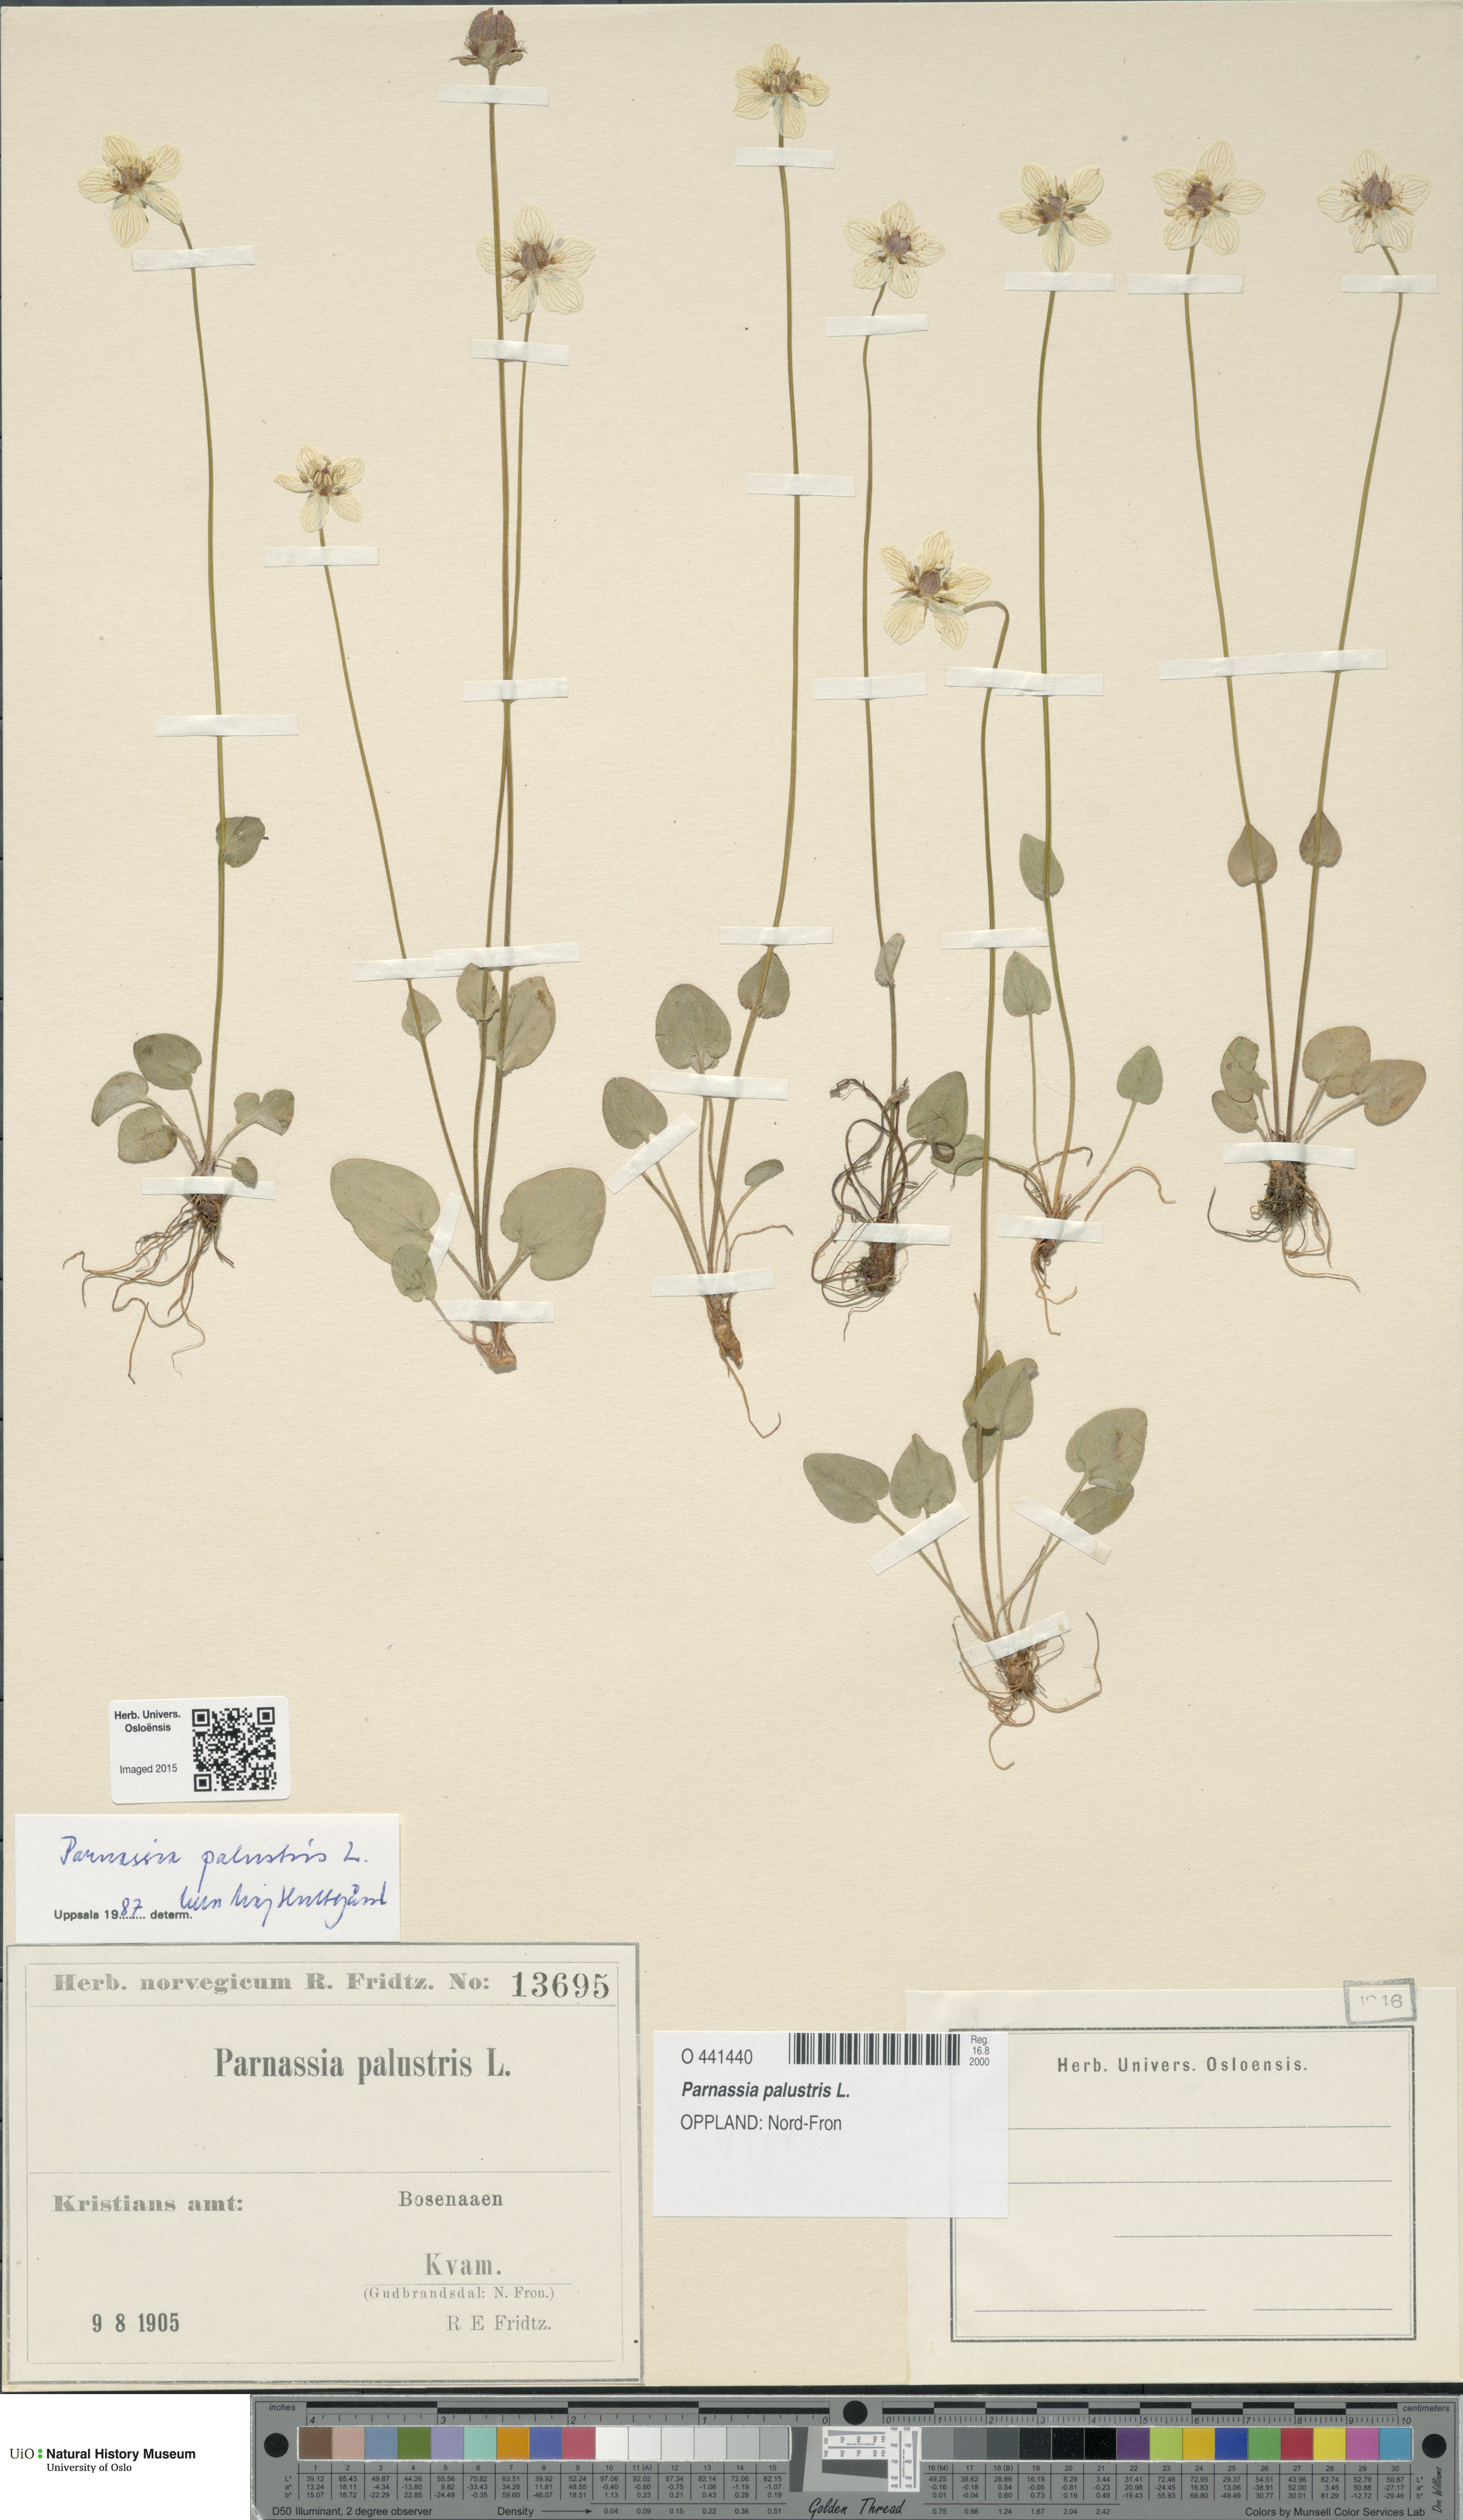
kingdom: Plantae
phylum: Tracheophyta
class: Magnoliopsida
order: Celastrales
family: Parnassiaceae
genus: Parnassia
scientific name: Parnassia palustris
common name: Grass-of-parnassus
